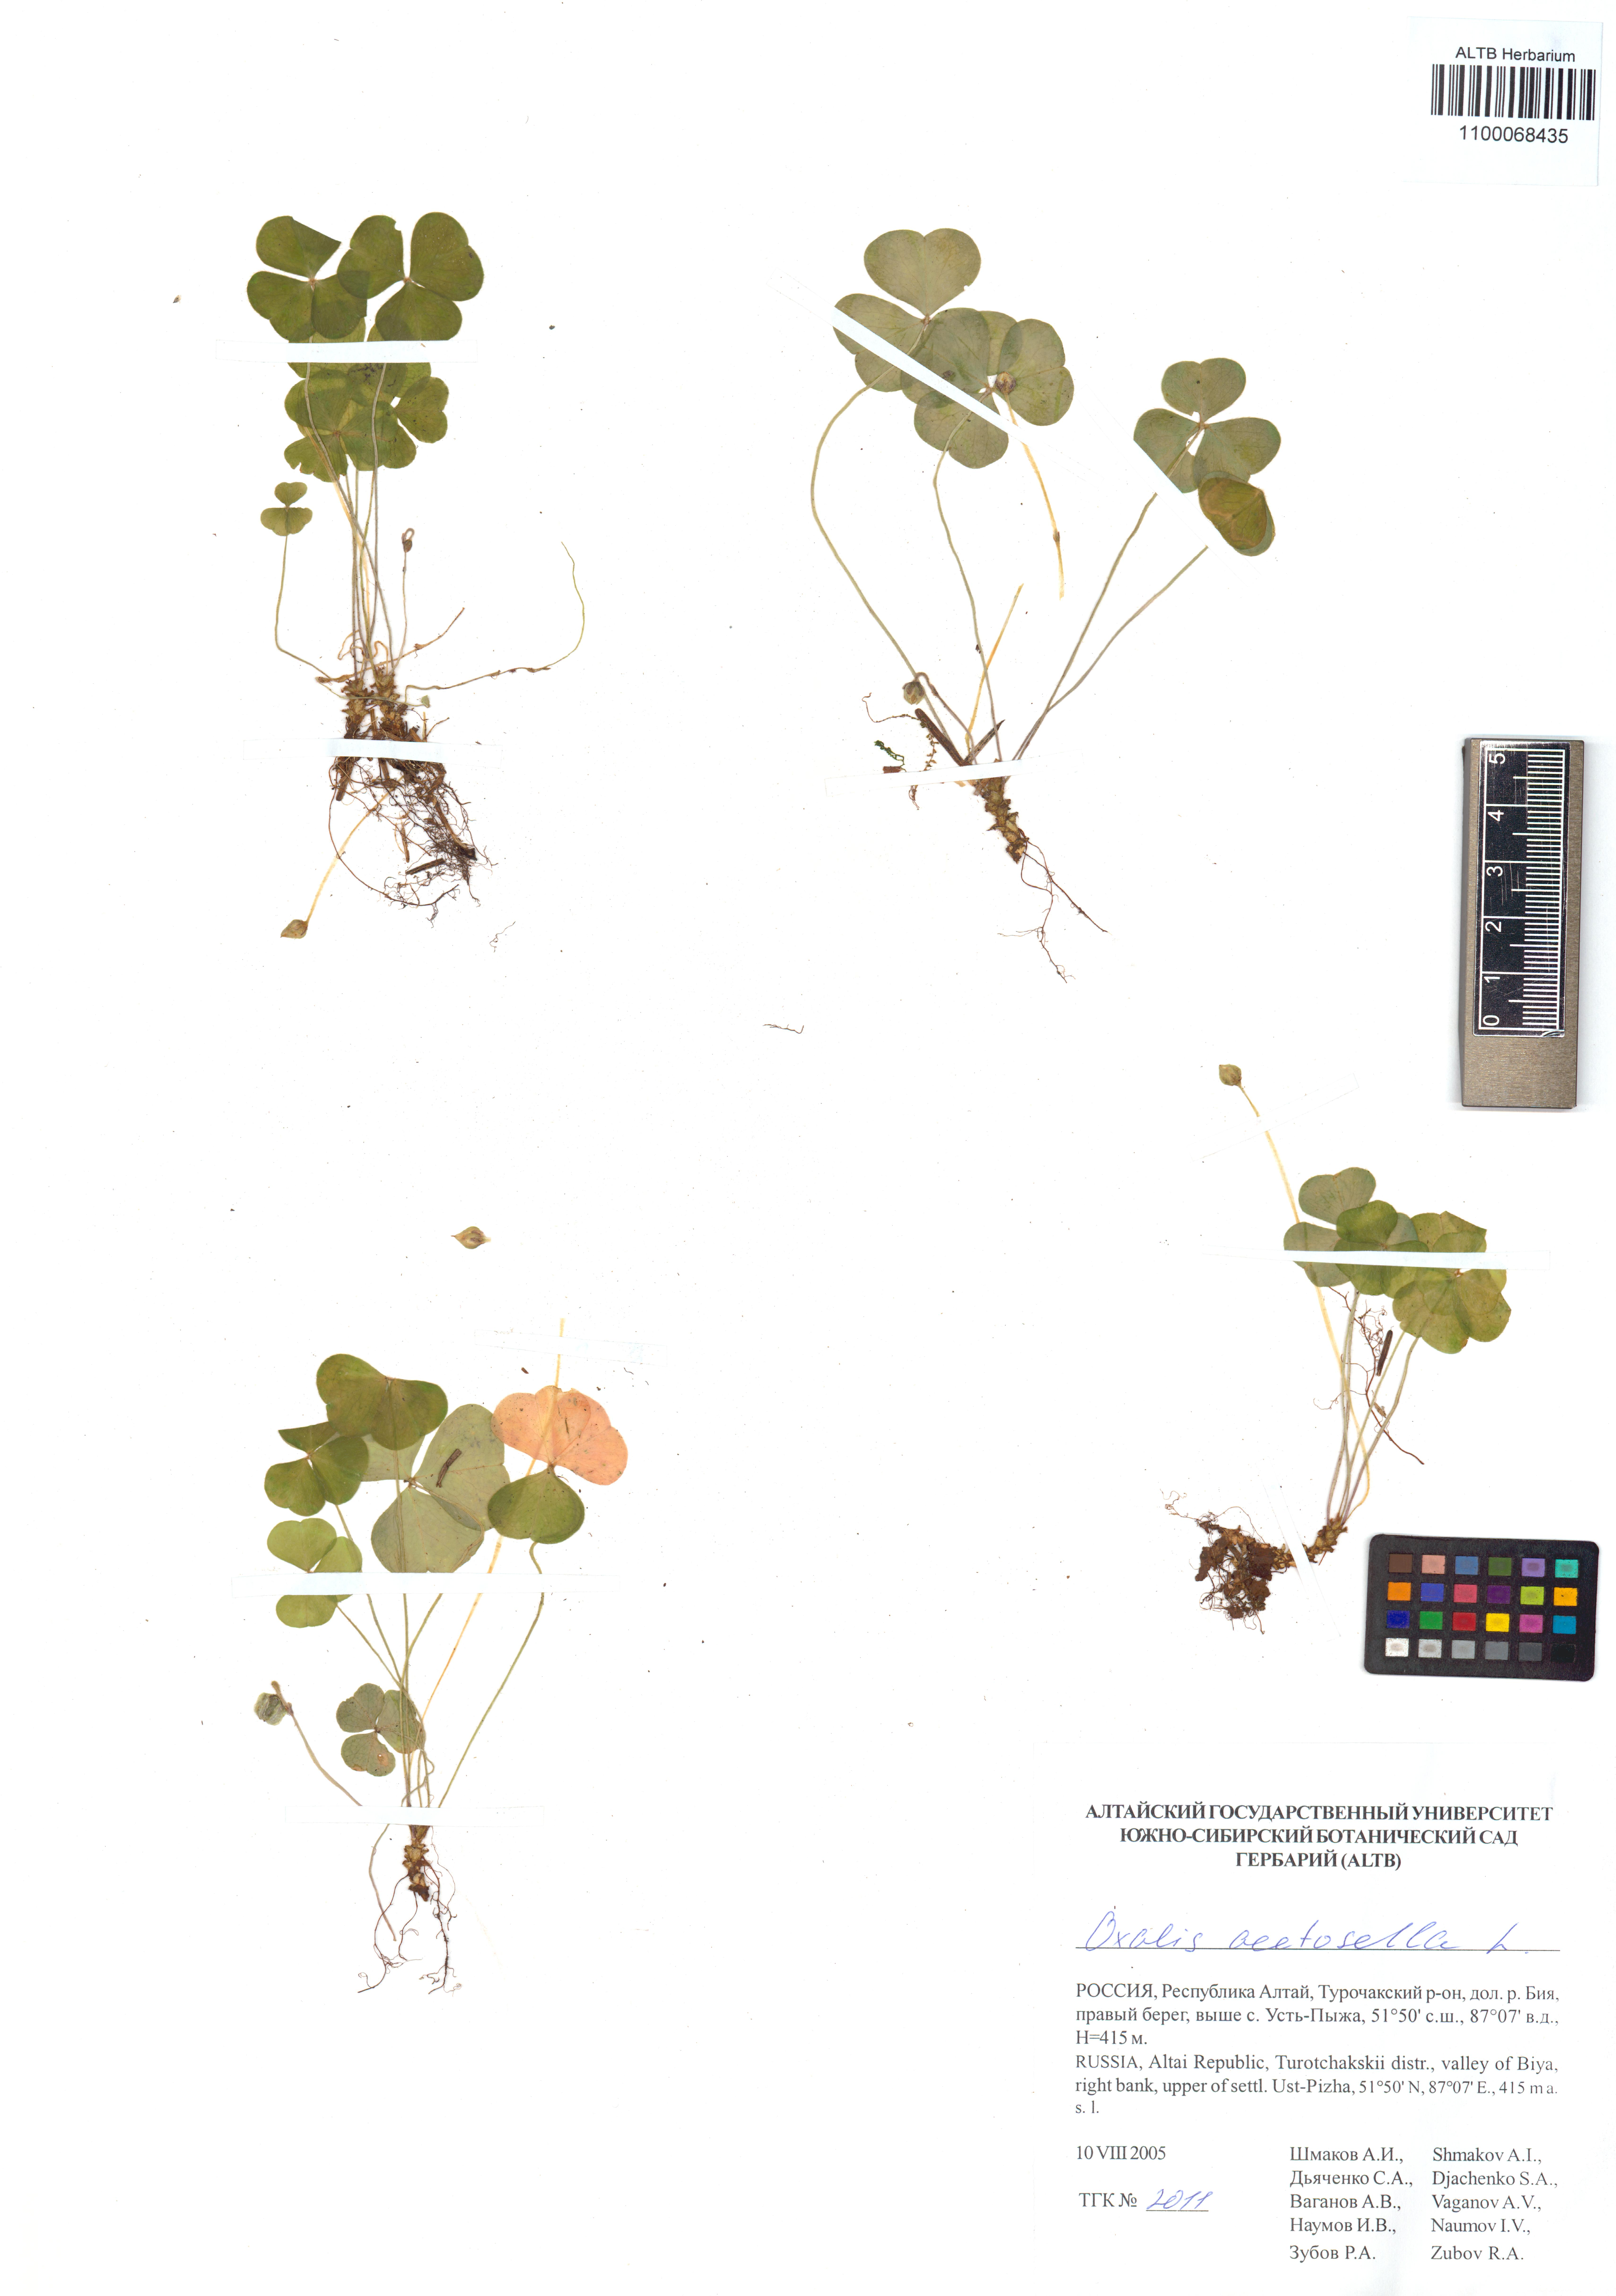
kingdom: Plantae
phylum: Tracheophyta
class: Magnoliopsida
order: Oxalidales
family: Oxalidaceae
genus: Oxalis
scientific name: Oxalis acetosella
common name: Wood-sorrel
